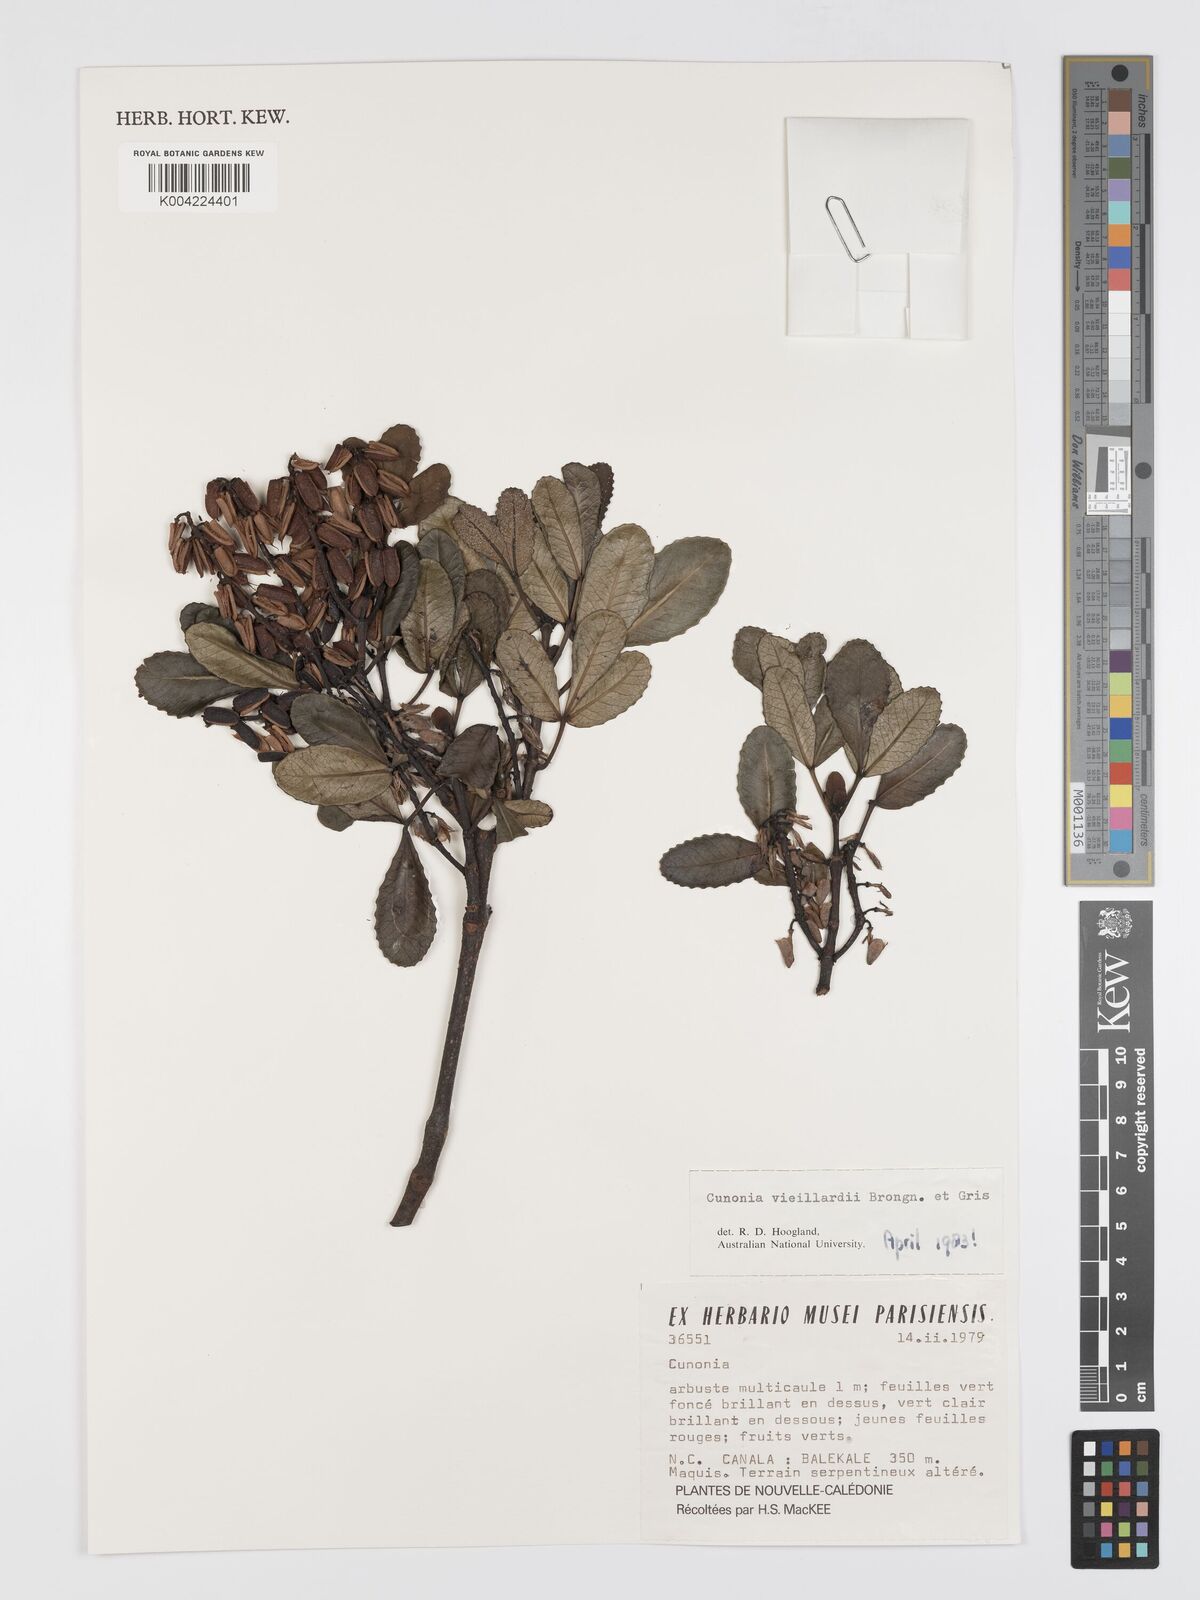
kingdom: Plantae
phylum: Tracheophyta
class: Magnoliopsida
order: Oxalidales
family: Cunoniaceae
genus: Cunonia
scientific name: Cunonia vieillardii
